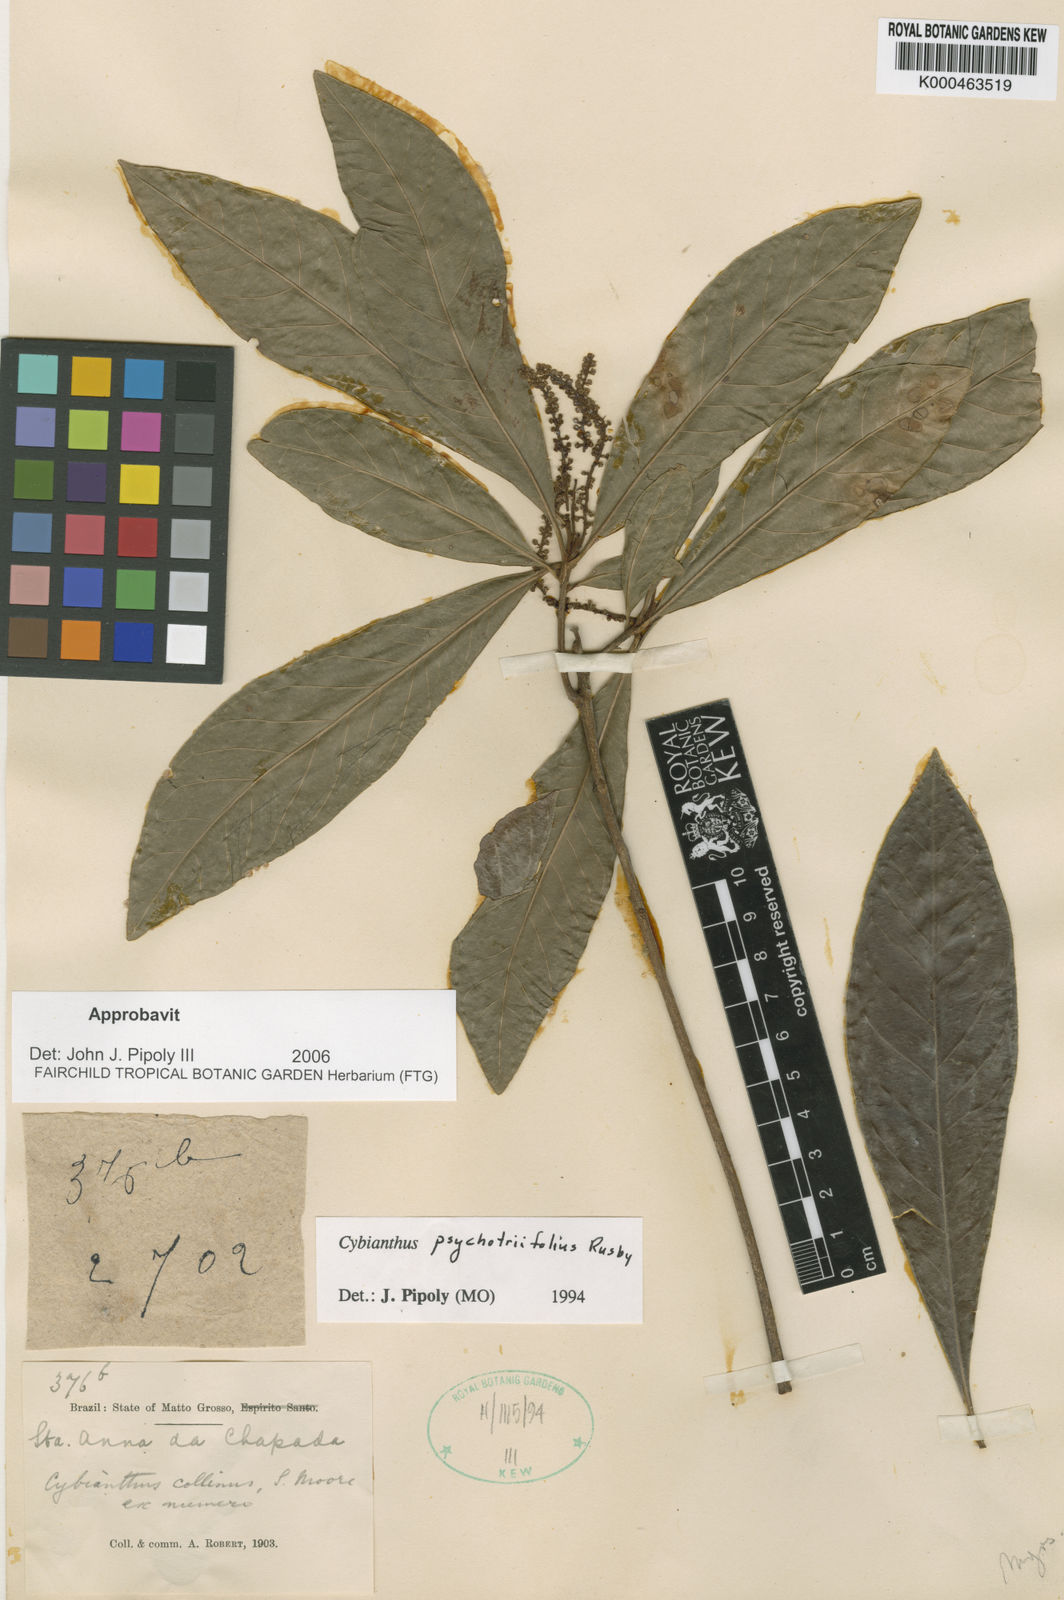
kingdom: Plantae
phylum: Tracheophyta
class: Magnoliopsida
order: Ericales
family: Primulaceae
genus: Cybianthus
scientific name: Cybianthus psychotriifolius
